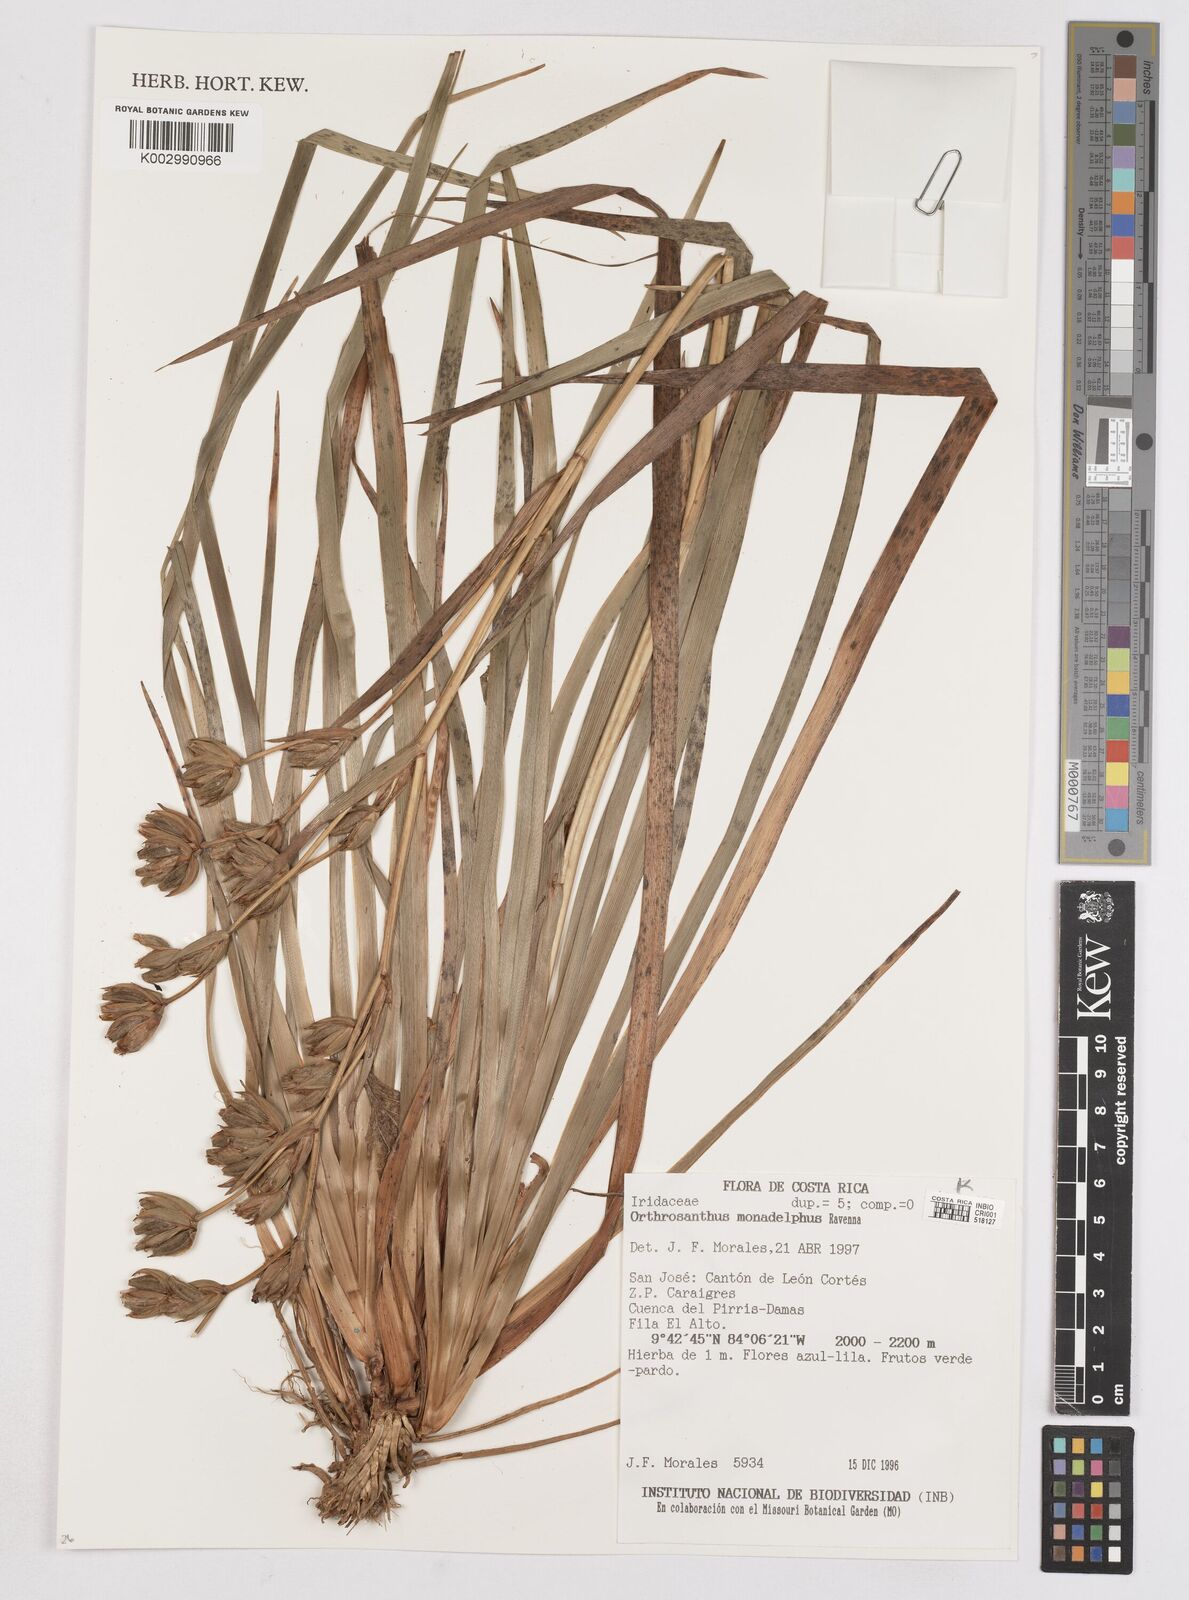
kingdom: Plantae
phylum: Tracheophyta
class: Liliopsida
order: Asparagales
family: Iridaceae
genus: Orthrosanthus
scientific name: Orthrosanthus monadelphus
